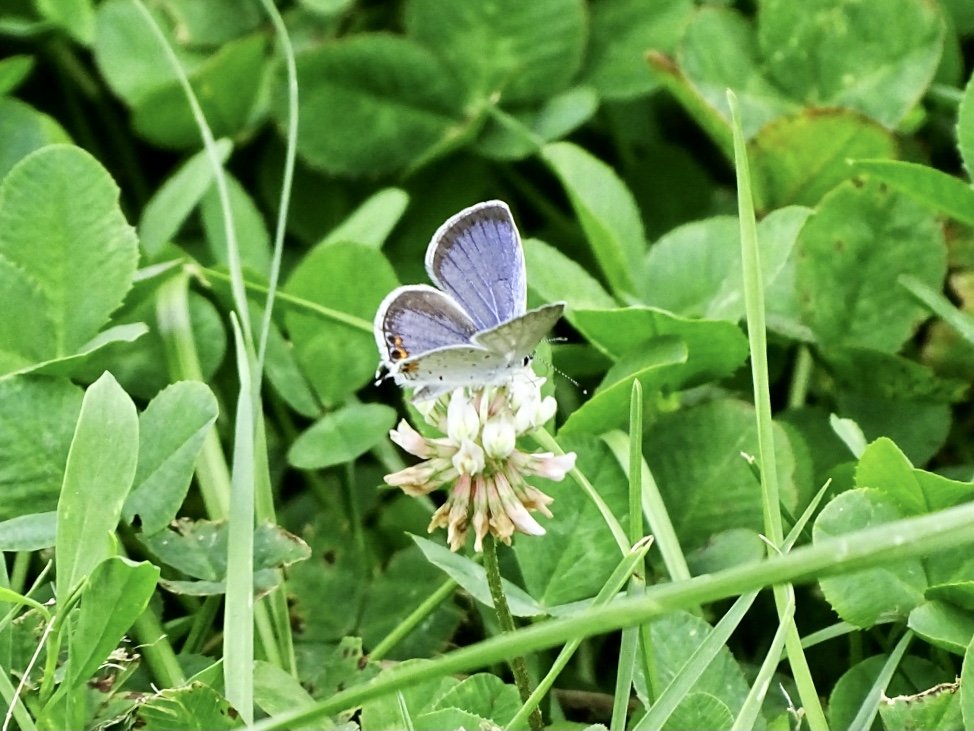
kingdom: Animalia
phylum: Arthropoda
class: Insecta
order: Lepidoptera
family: Lycaenidae
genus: Elkalyce
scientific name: Elkalyce comyntas
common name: Eastern Tailed-Blue
